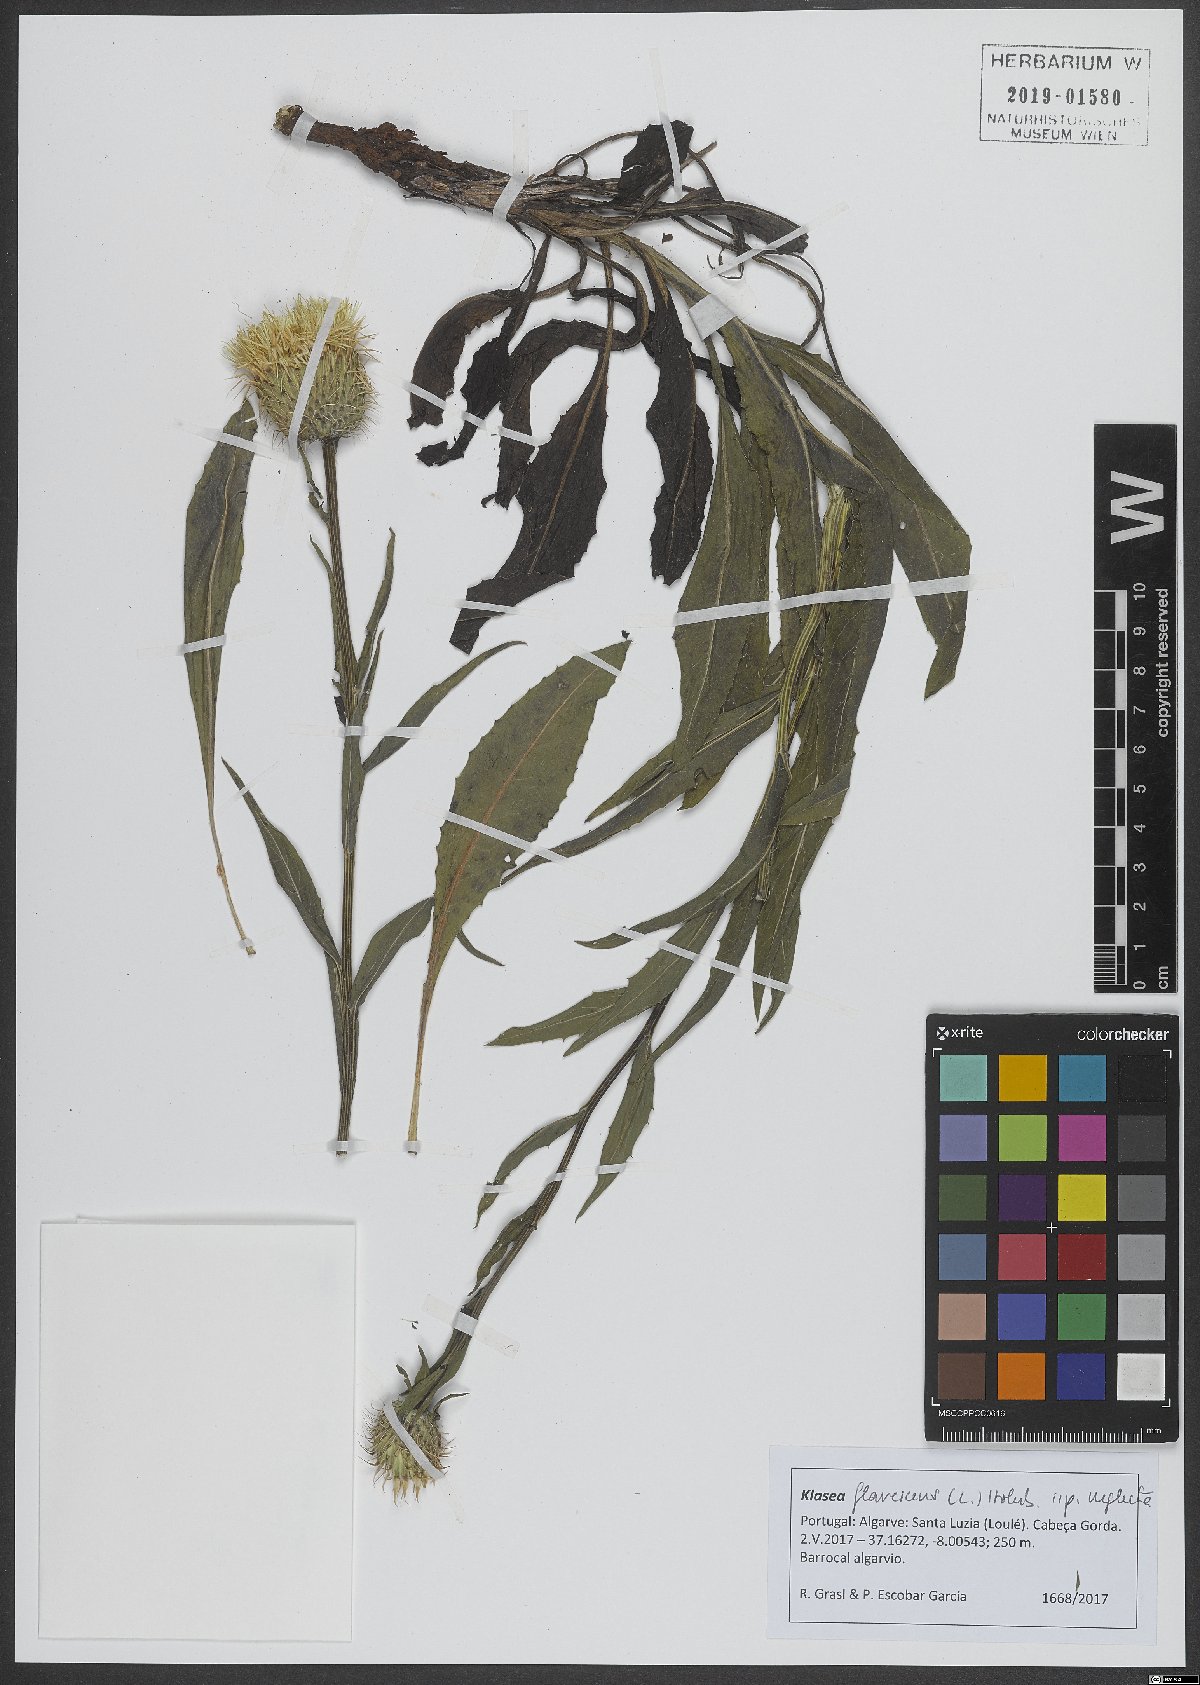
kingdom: Plantae
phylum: Tracheophyta
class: Magnoliopsida
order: Asterales
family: Asteraceae
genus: Klasea
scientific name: Klasea flavescens
